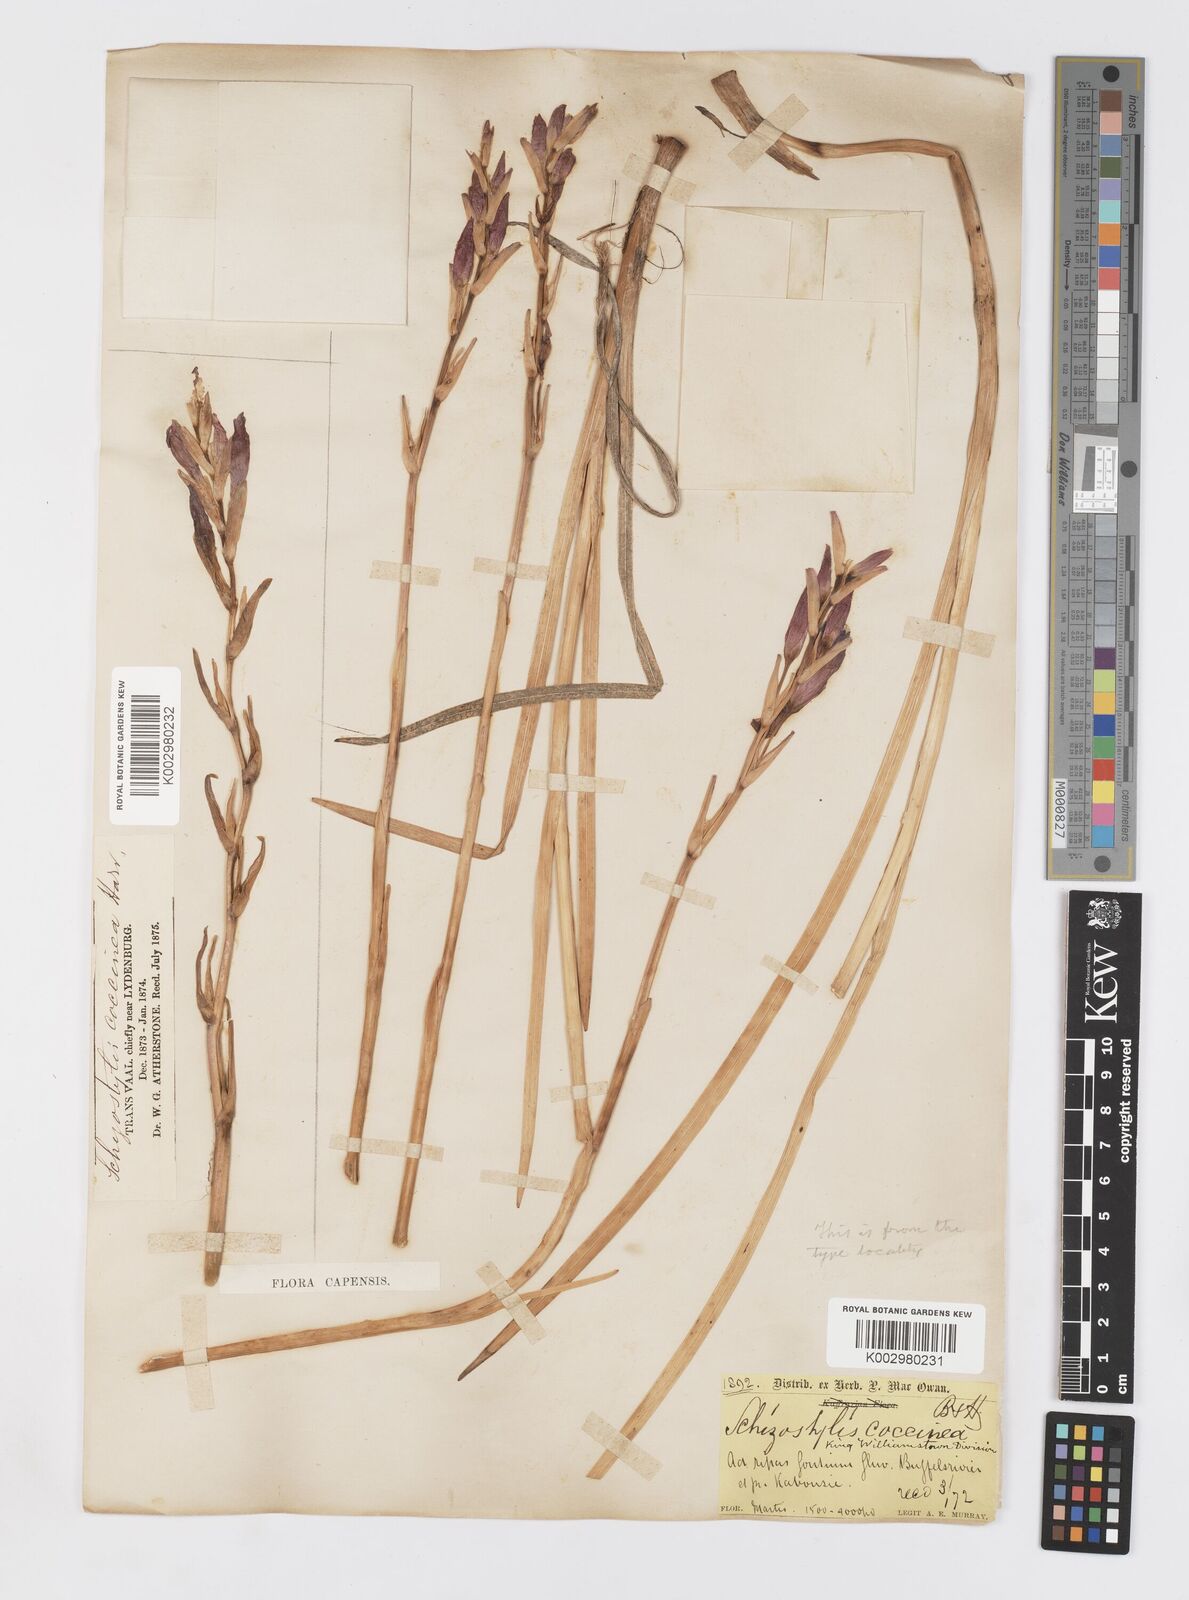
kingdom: Plantae
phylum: Tracheophyta
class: Liliopsida
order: Asparagales
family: Iridaceae
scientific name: Iridaceae
